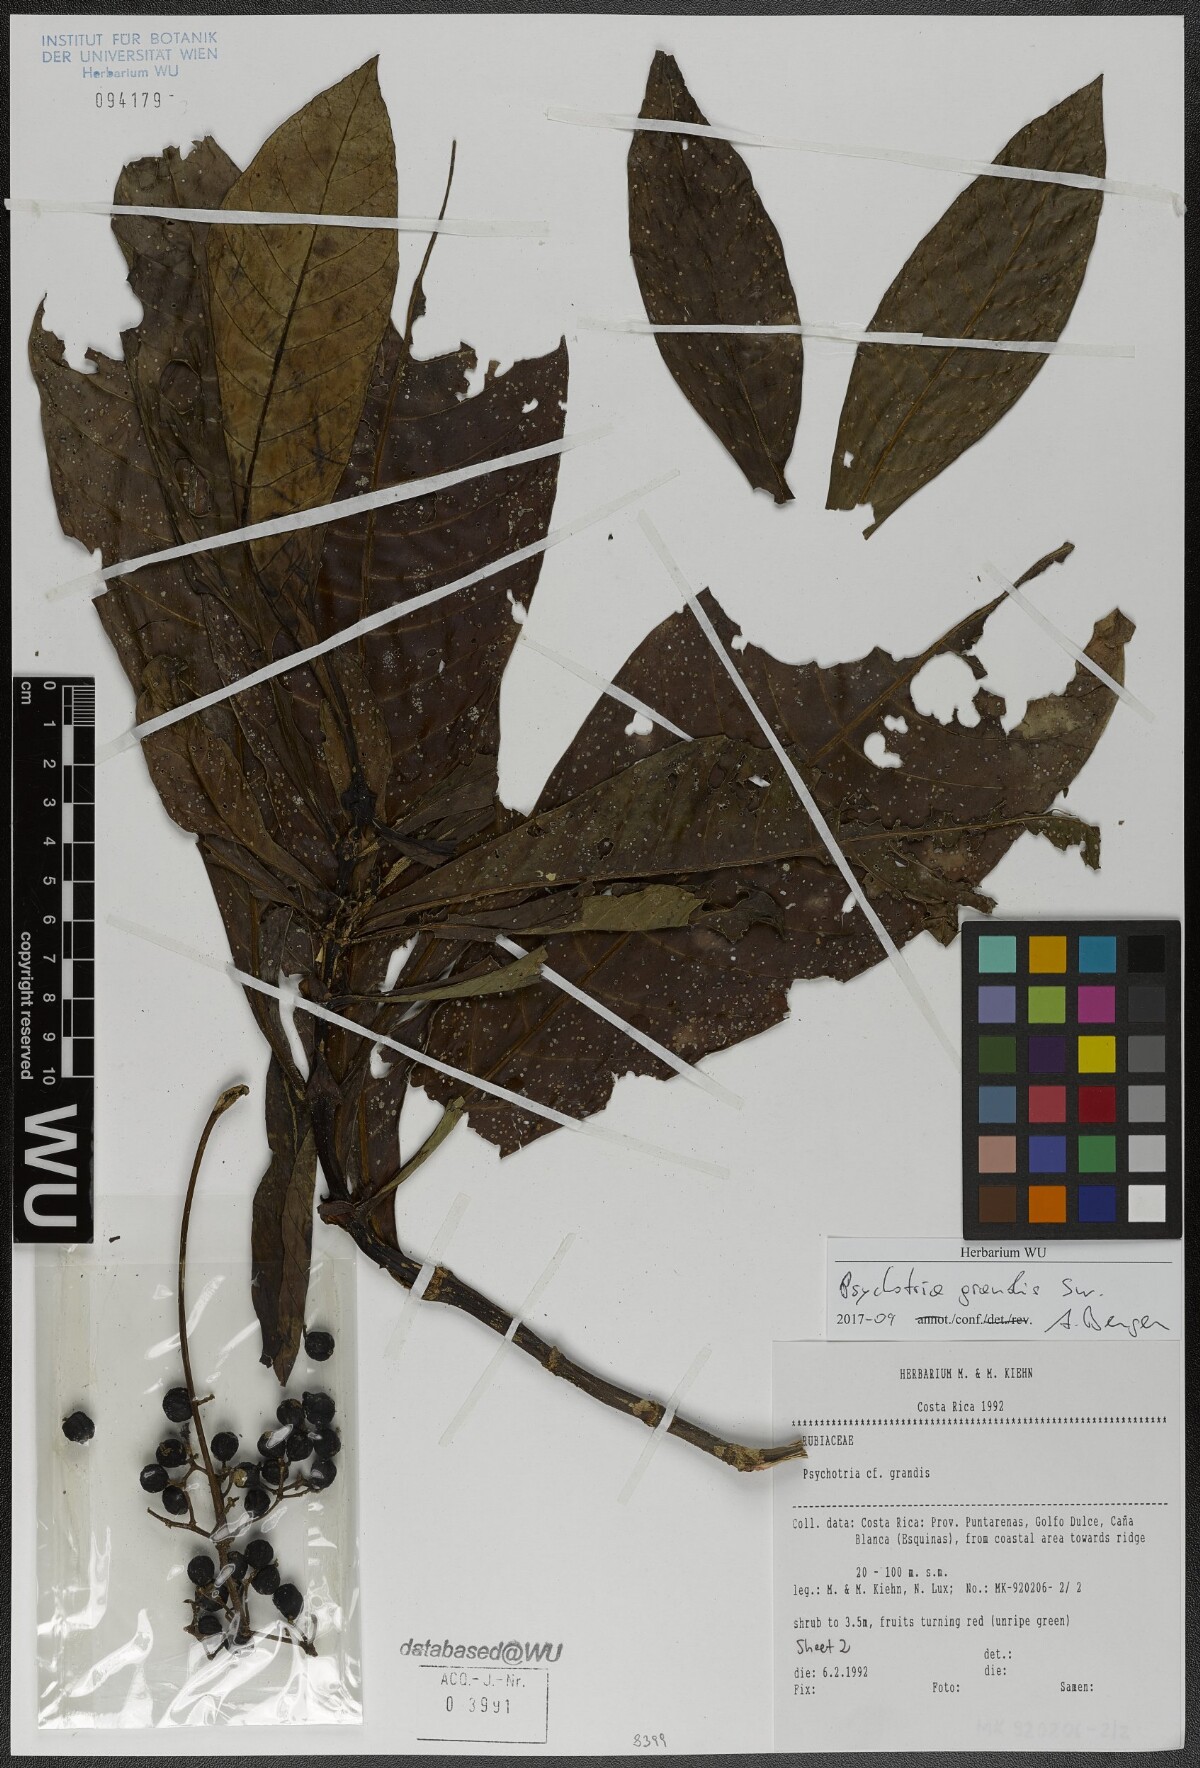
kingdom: Plantae
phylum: Tracheophyta
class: Magnoliopsida
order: Gentianales
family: Rubiaceae
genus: Psychotria
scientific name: Psychotria grandis
